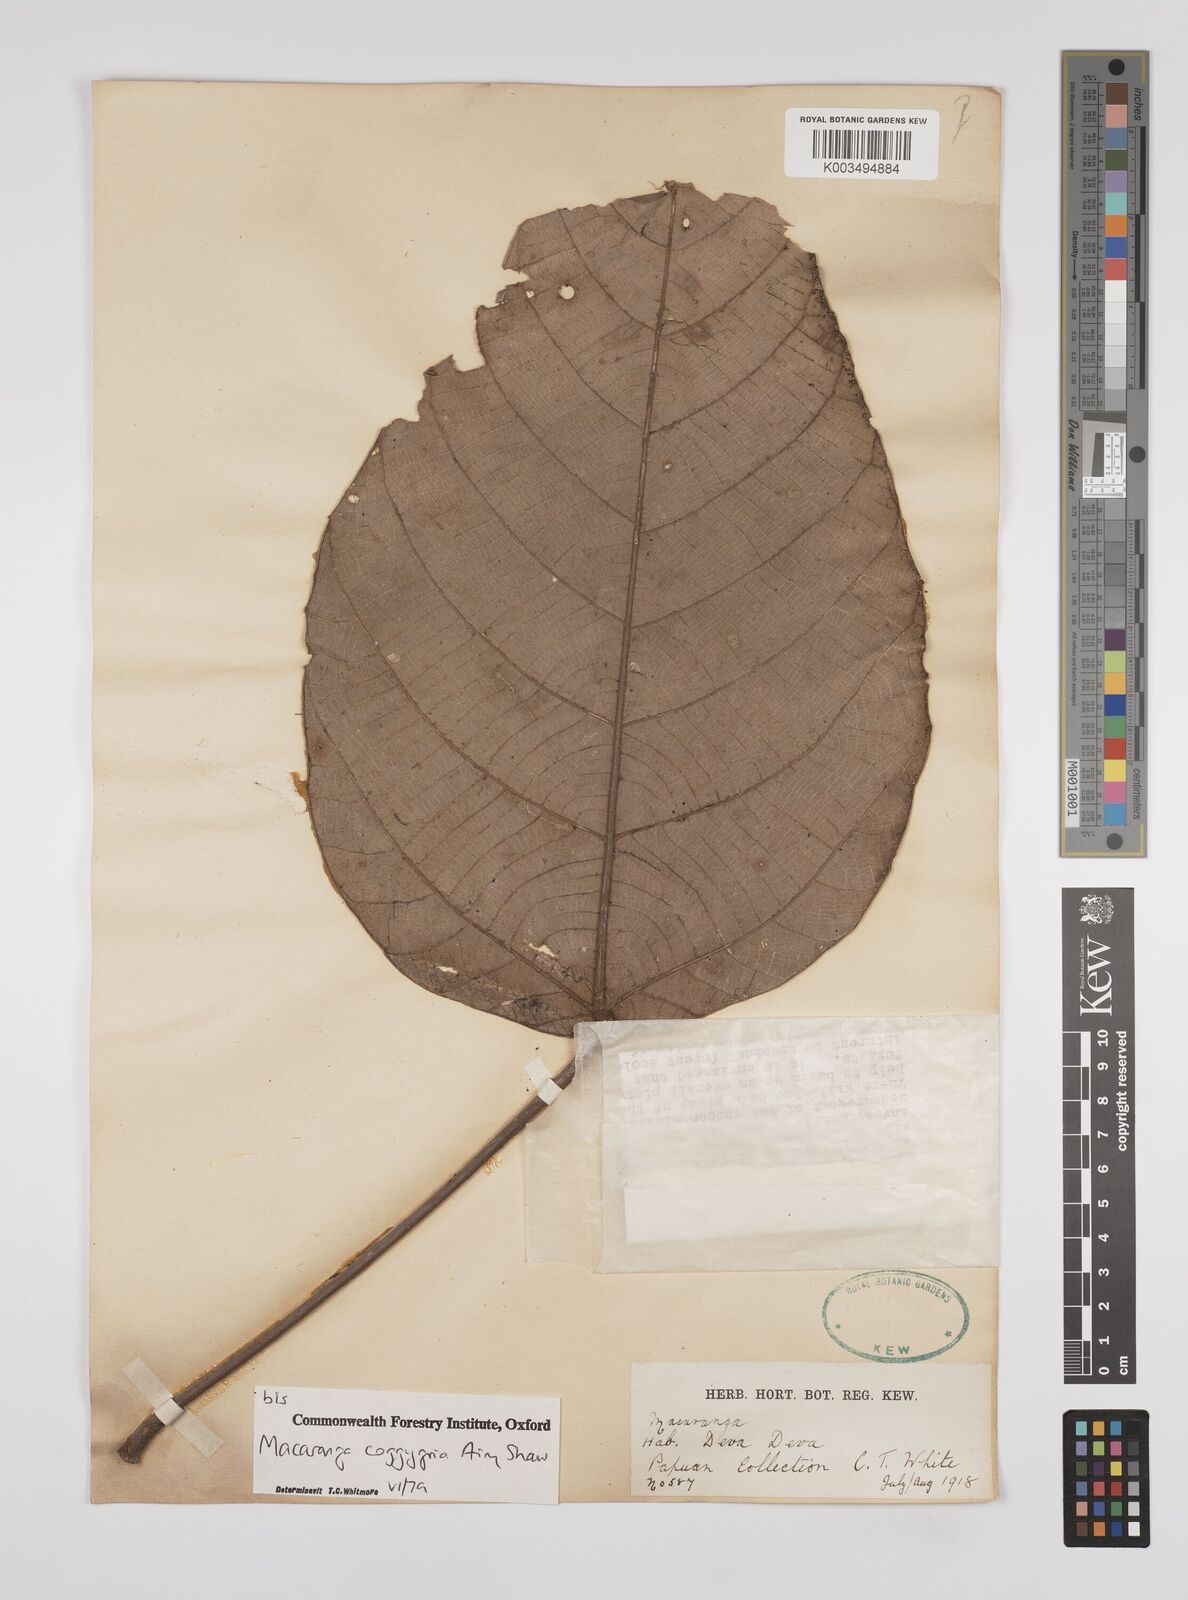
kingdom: Plantae
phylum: Tracheophyta
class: Magnoliopsida
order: Malpighiales
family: Euphorbiaceae
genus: Macaranga
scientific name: Macaranga coggygria
